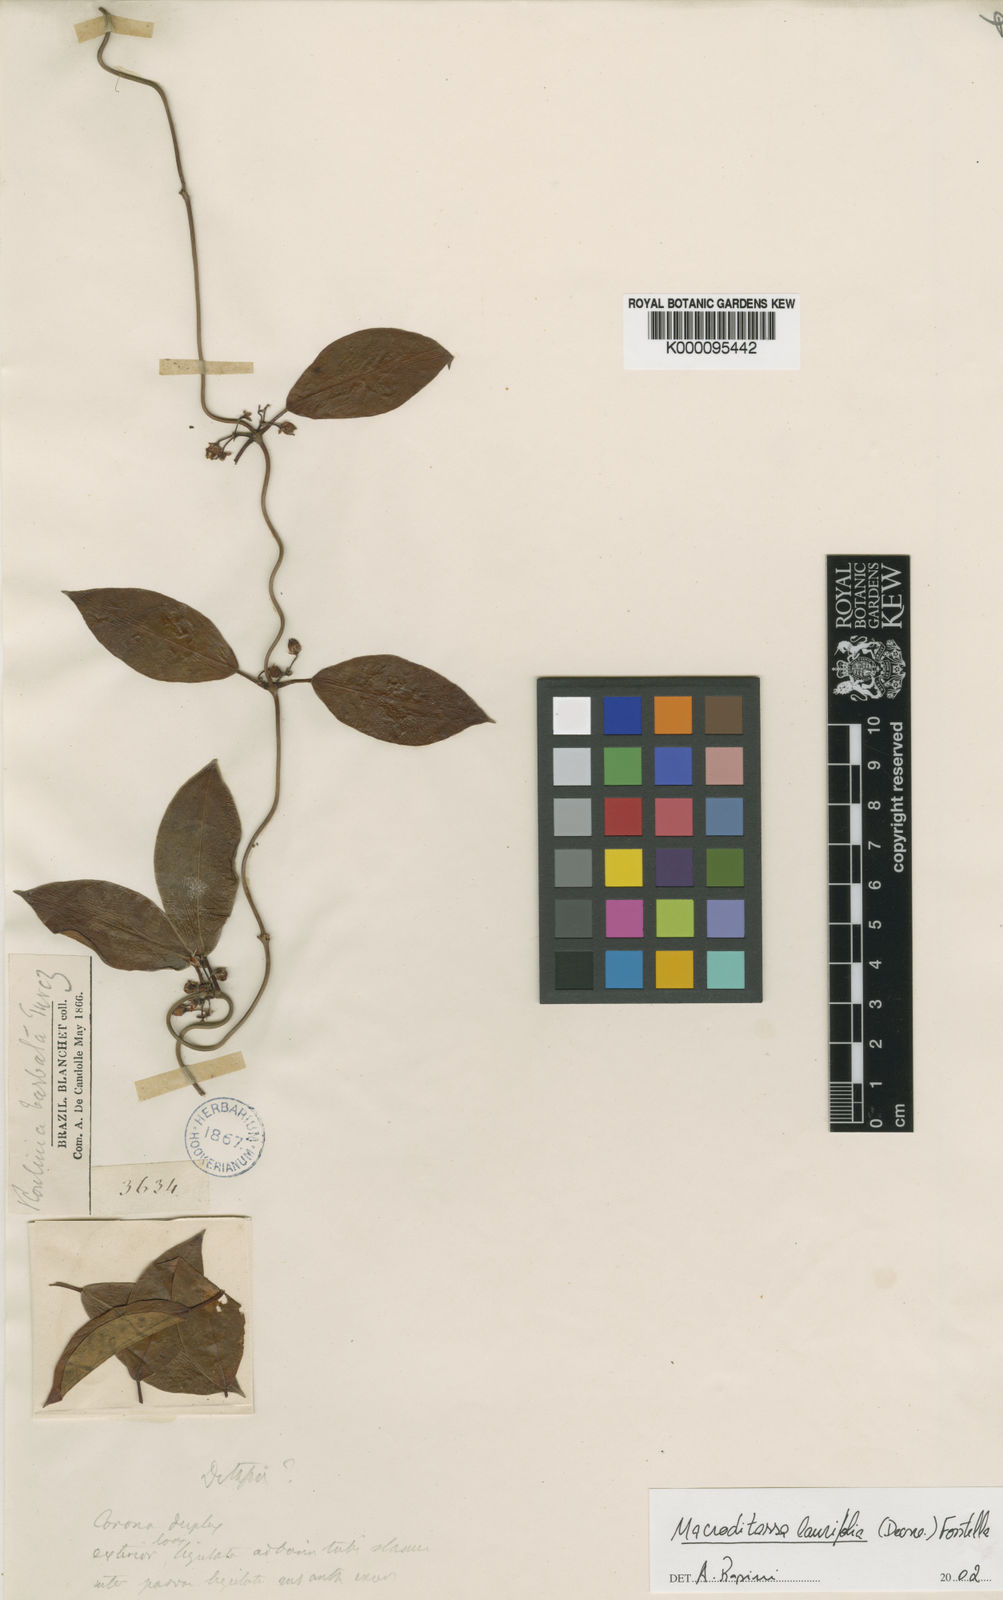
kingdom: Plantae
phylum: Tracheophyta
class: Magnoliopsida
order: Gentianales
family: Apocynaceae
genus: Nephradenia
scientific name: Nephradenia laurifolia
